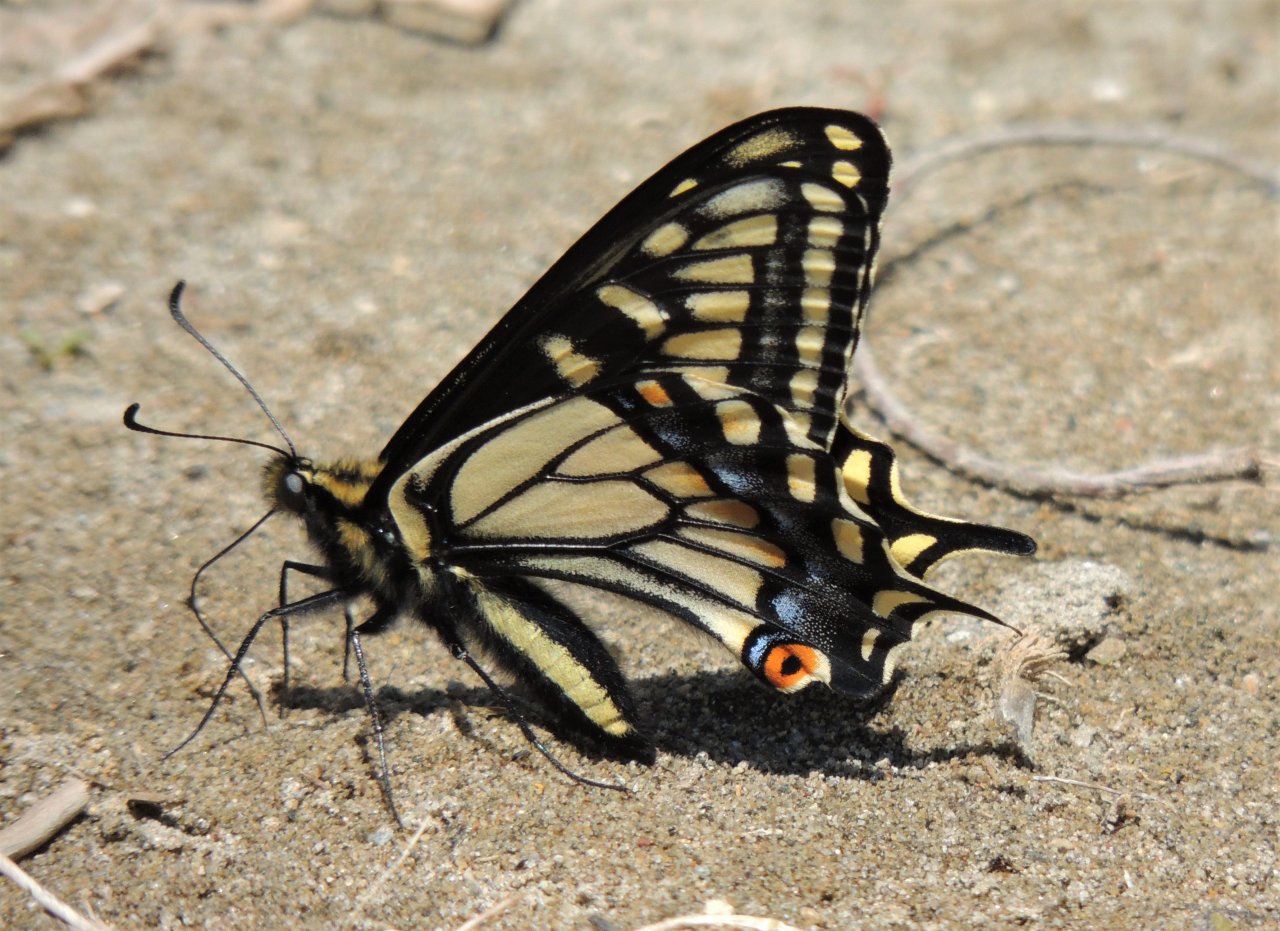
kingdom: Animalia
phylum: Arthropoda
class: Insecta
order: Lepidoptera
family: Papilionidae
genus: Papilio
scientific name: Papilio zelicaon
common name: Anise Swallowtail
